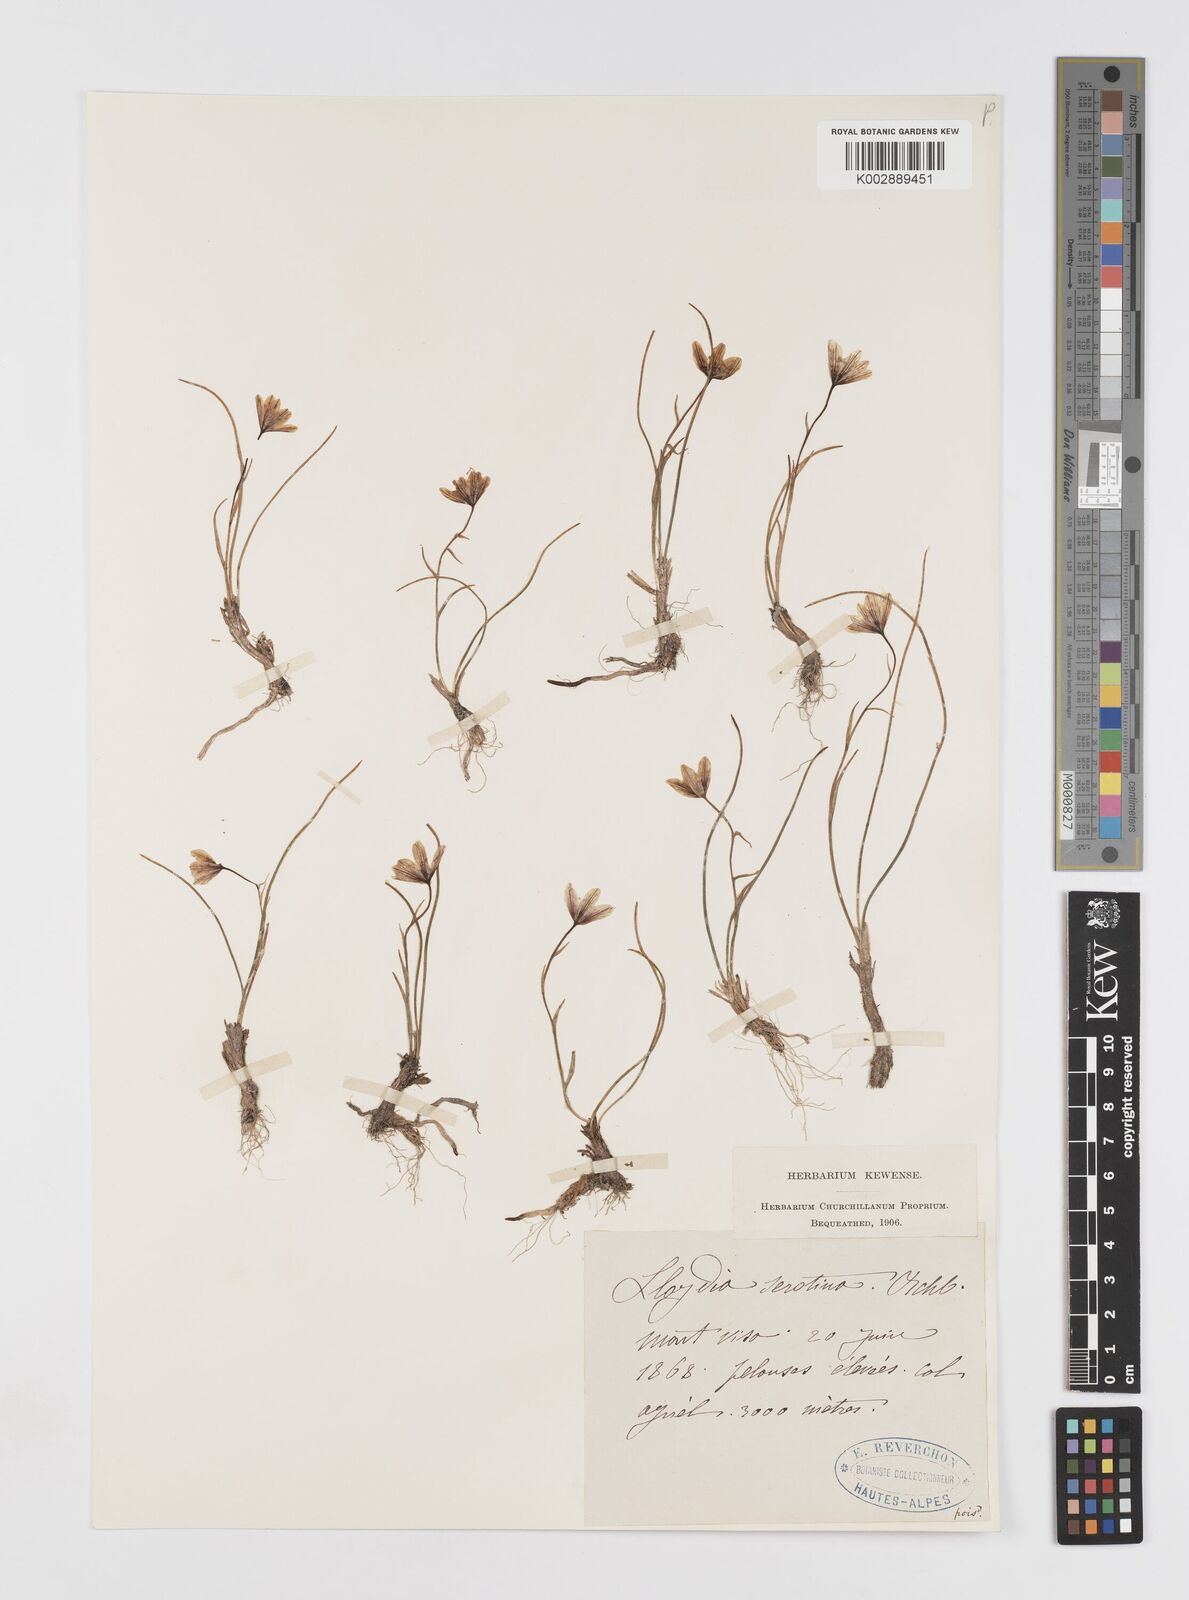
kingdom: Plantae
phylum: Tracheophyta
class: Liliopsida
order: Liliales
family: Liliaceae
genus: Gagea
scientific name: Gagea
